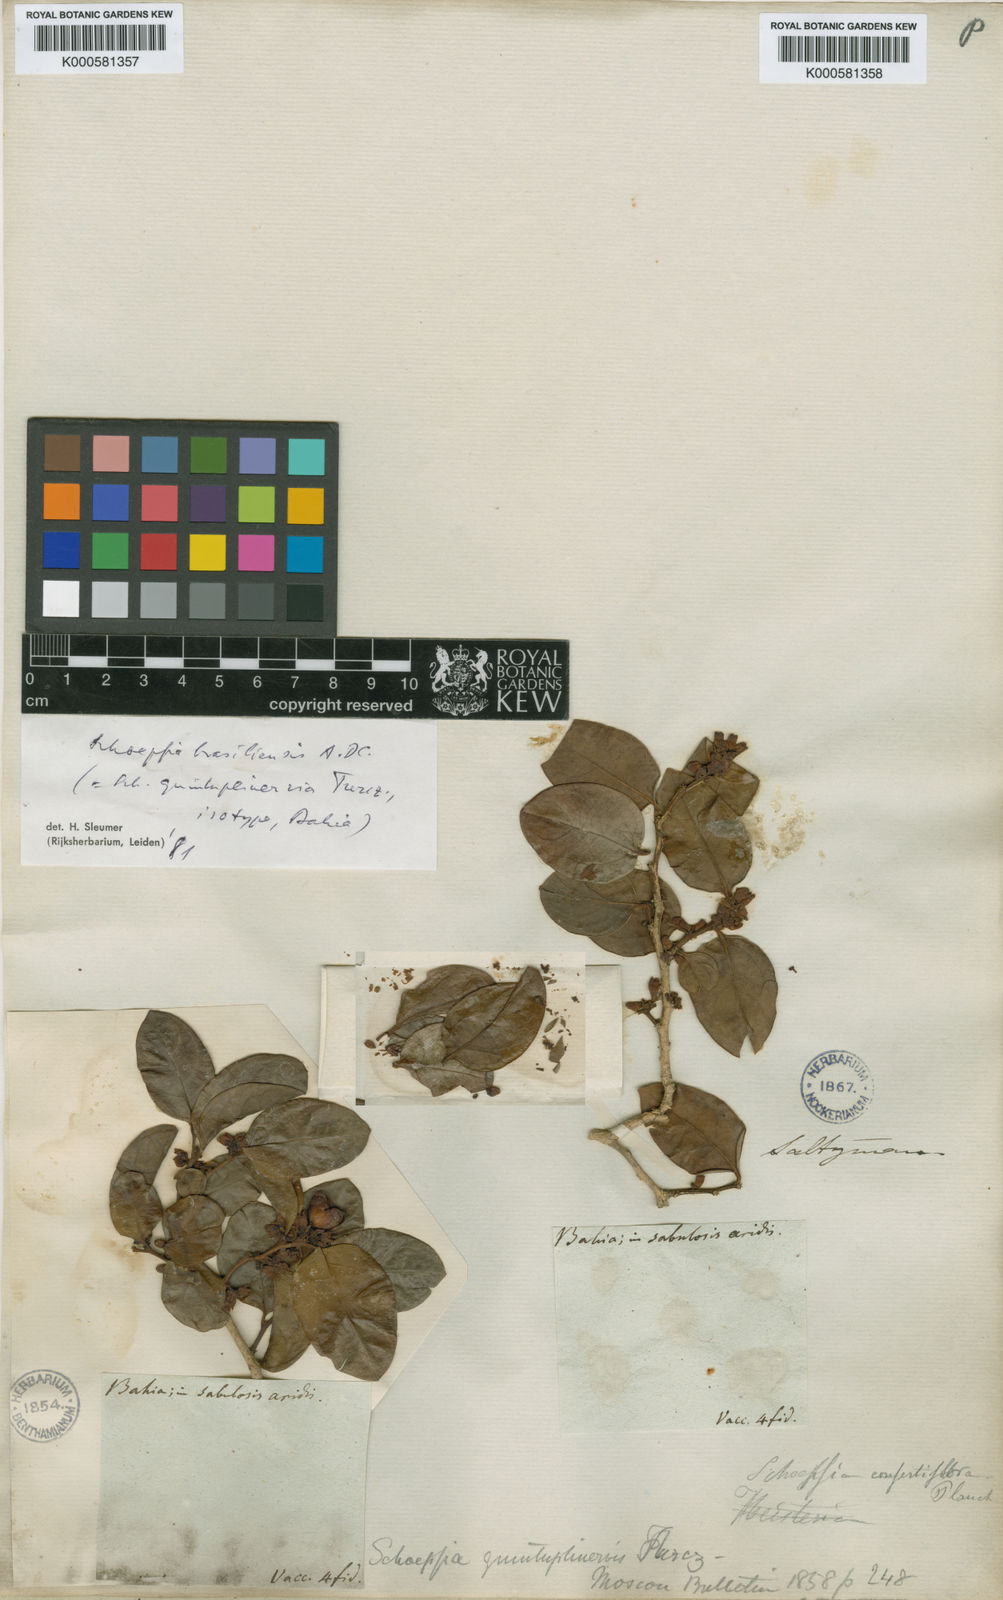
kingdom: Plantae
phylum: Tracheophyta
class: Magnoliopsida
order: Santalales
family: Schoepfiaceae
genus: Schoepfia
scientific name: Schoepfia brasiliensis
